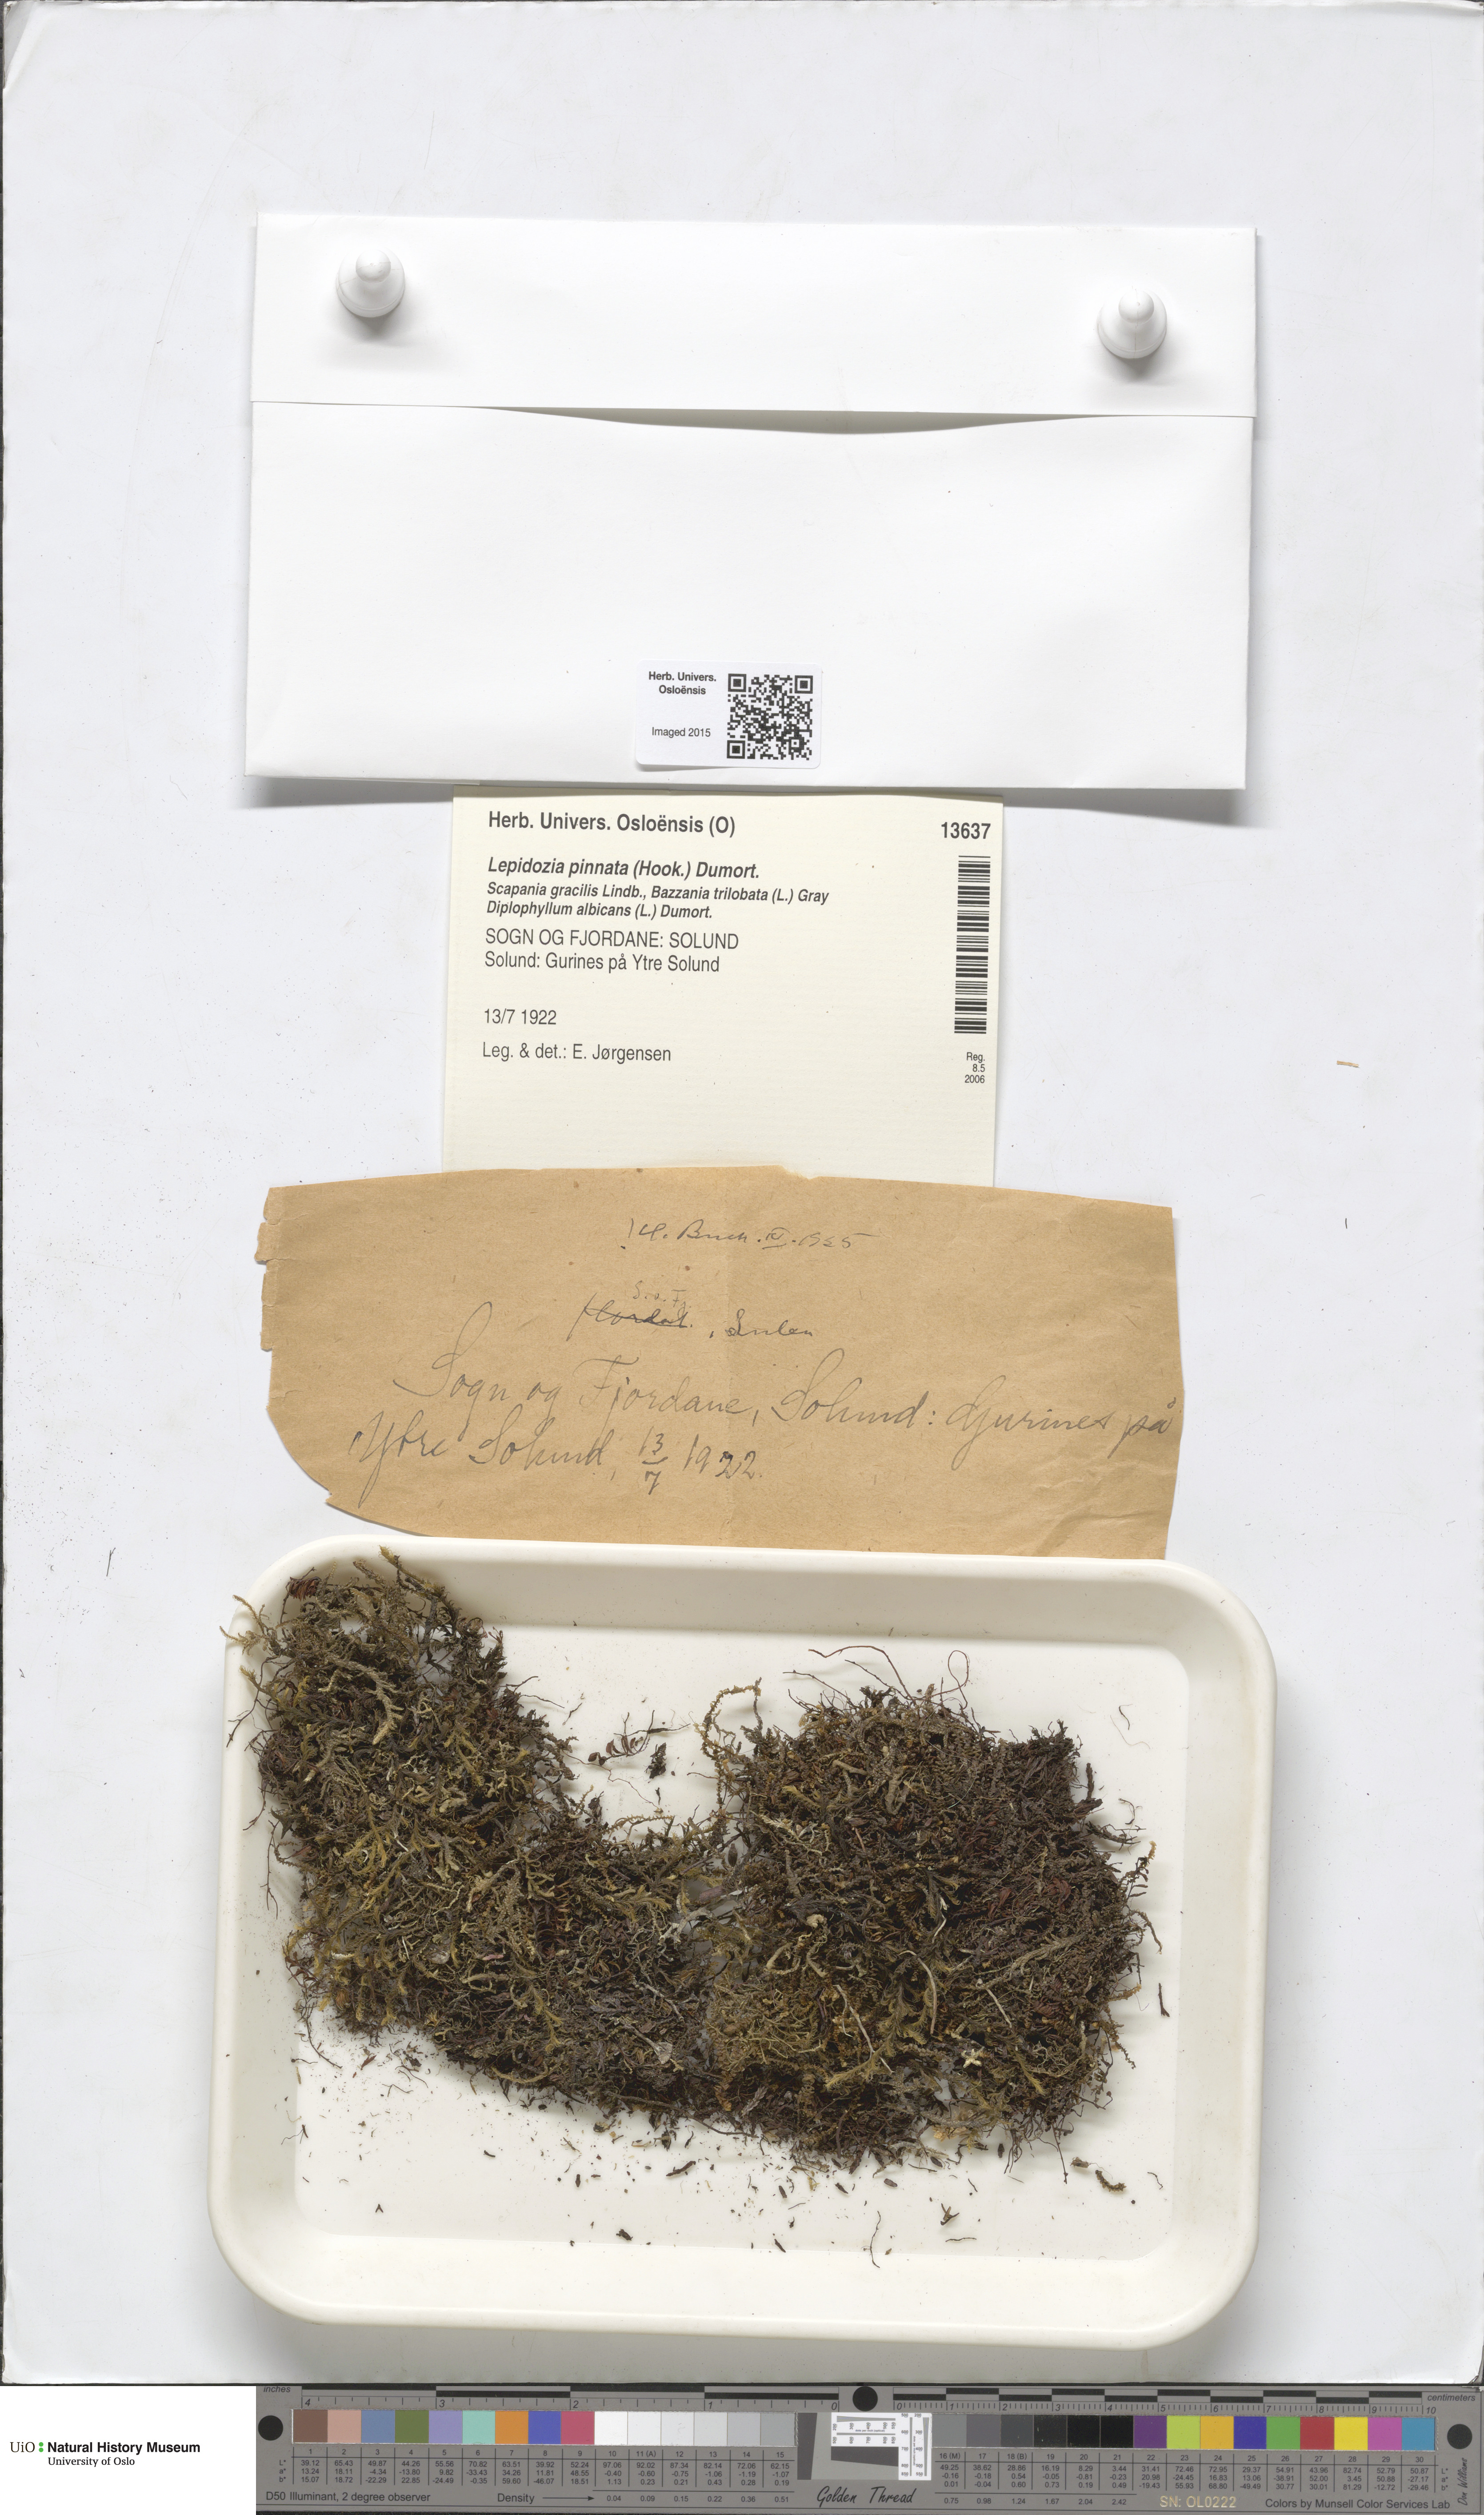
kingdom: Plantae
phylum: Marchantiophyta
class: Jungermanniopsida
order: Jungermanniales
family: Lepidoziaceae
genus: Lepidozia
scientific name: Lepidozia cupressina
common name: Rock fingerwort
